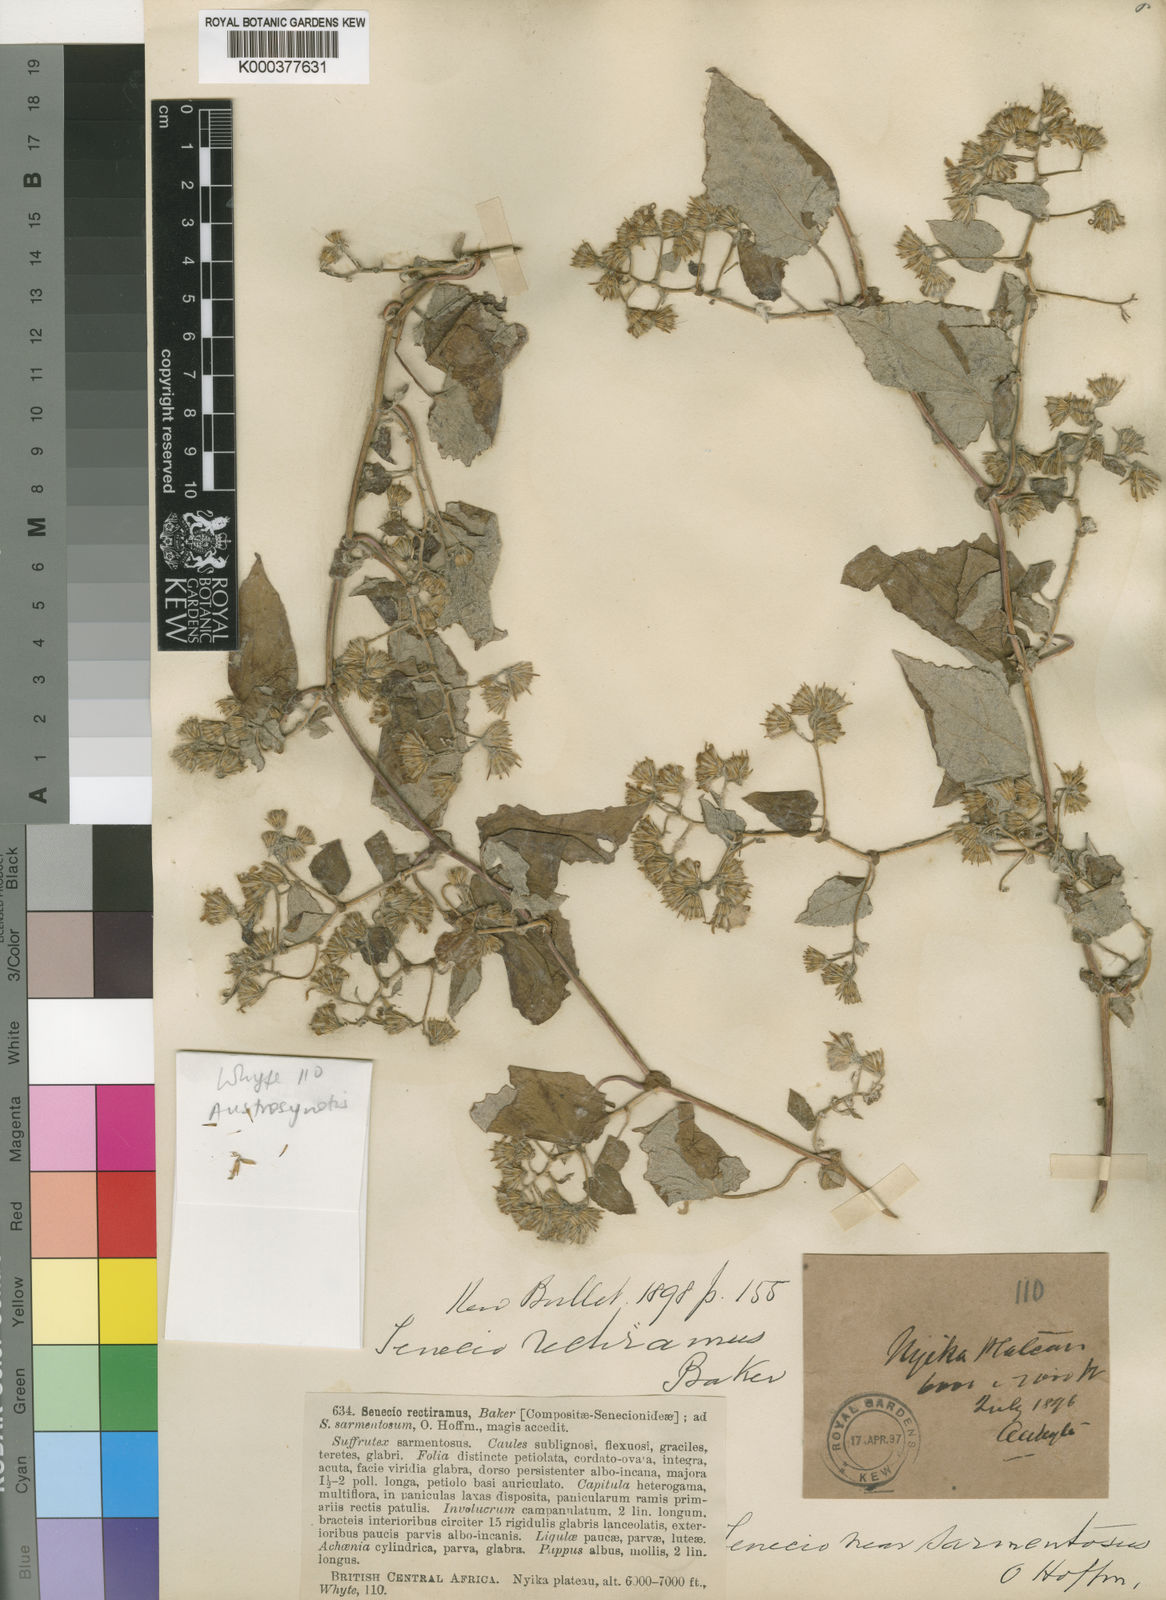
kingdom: Plantae
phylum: Tracheophyta
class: Magnoliopsida
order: Asterales
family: Asteraceae
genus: Austrosynotis
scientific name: Austrosynotis rectirama
